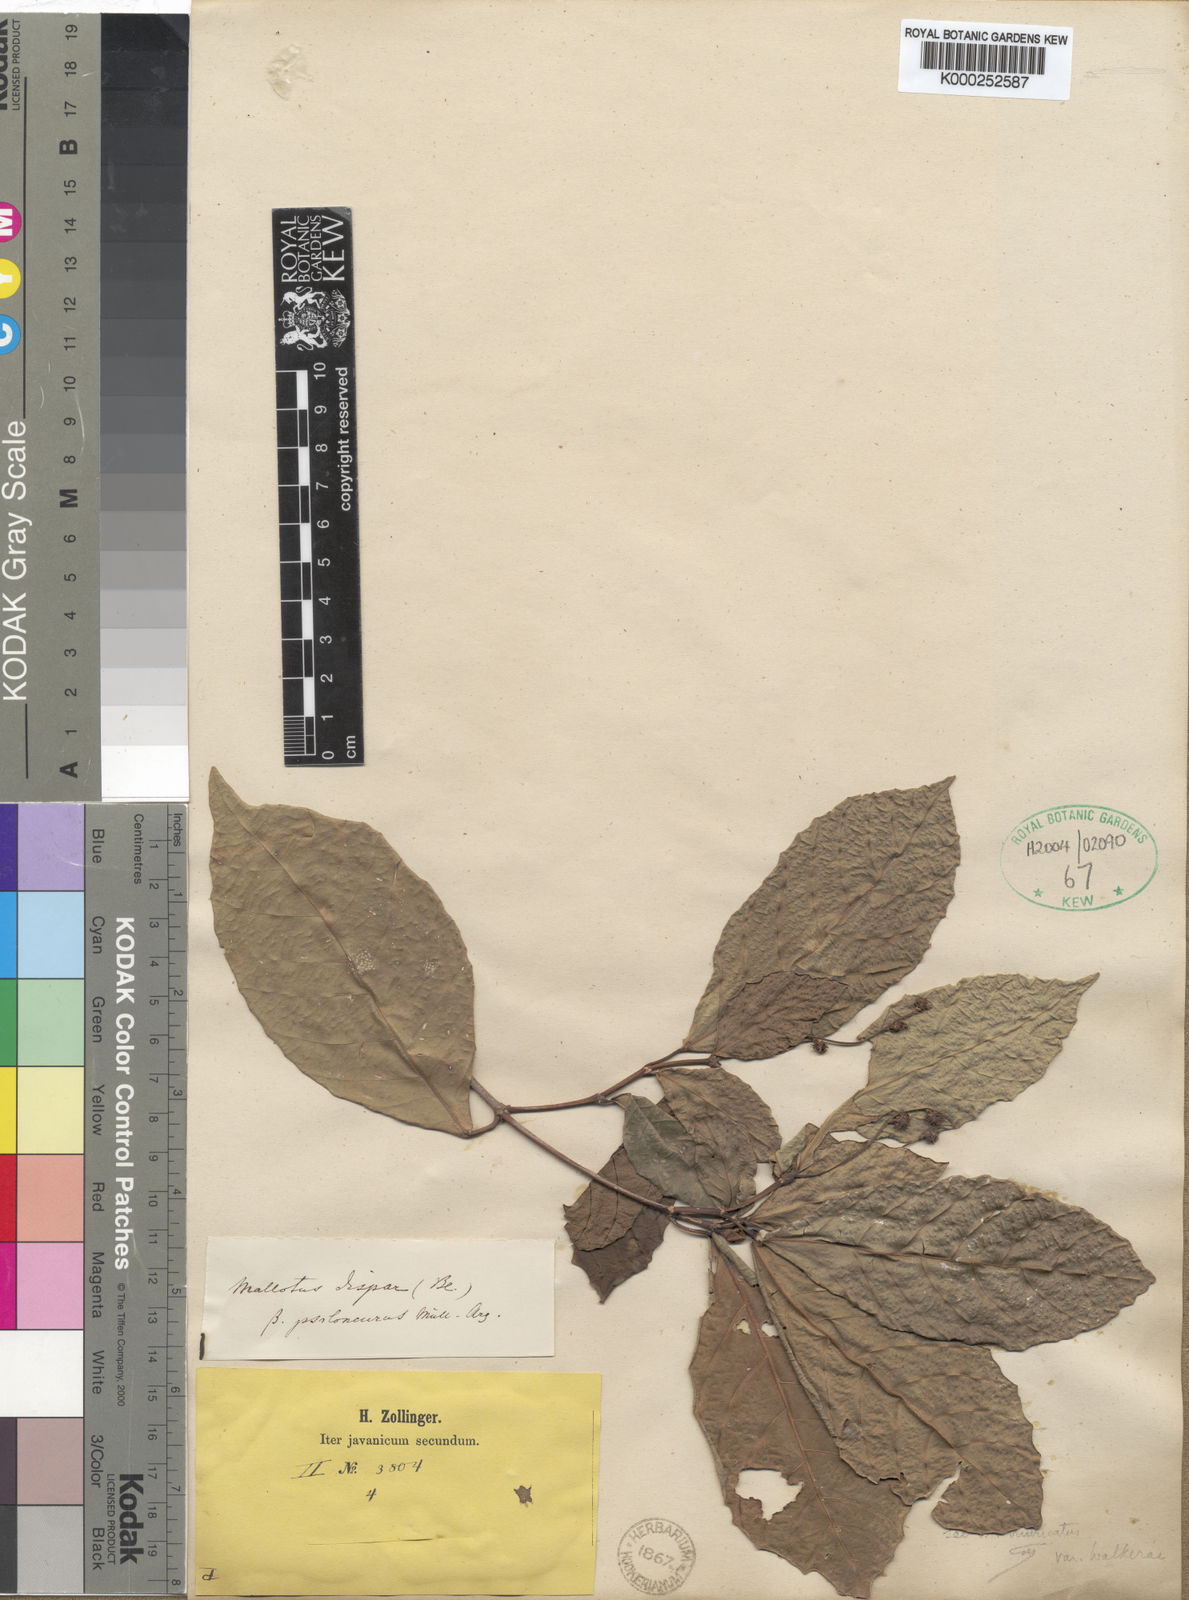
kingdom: Plantae
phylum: Tracheophyta
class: Magnoliopsida
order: Malpighiales
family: Euphorbiaceae
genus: Mallotus
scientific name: Mallotus resinosus
